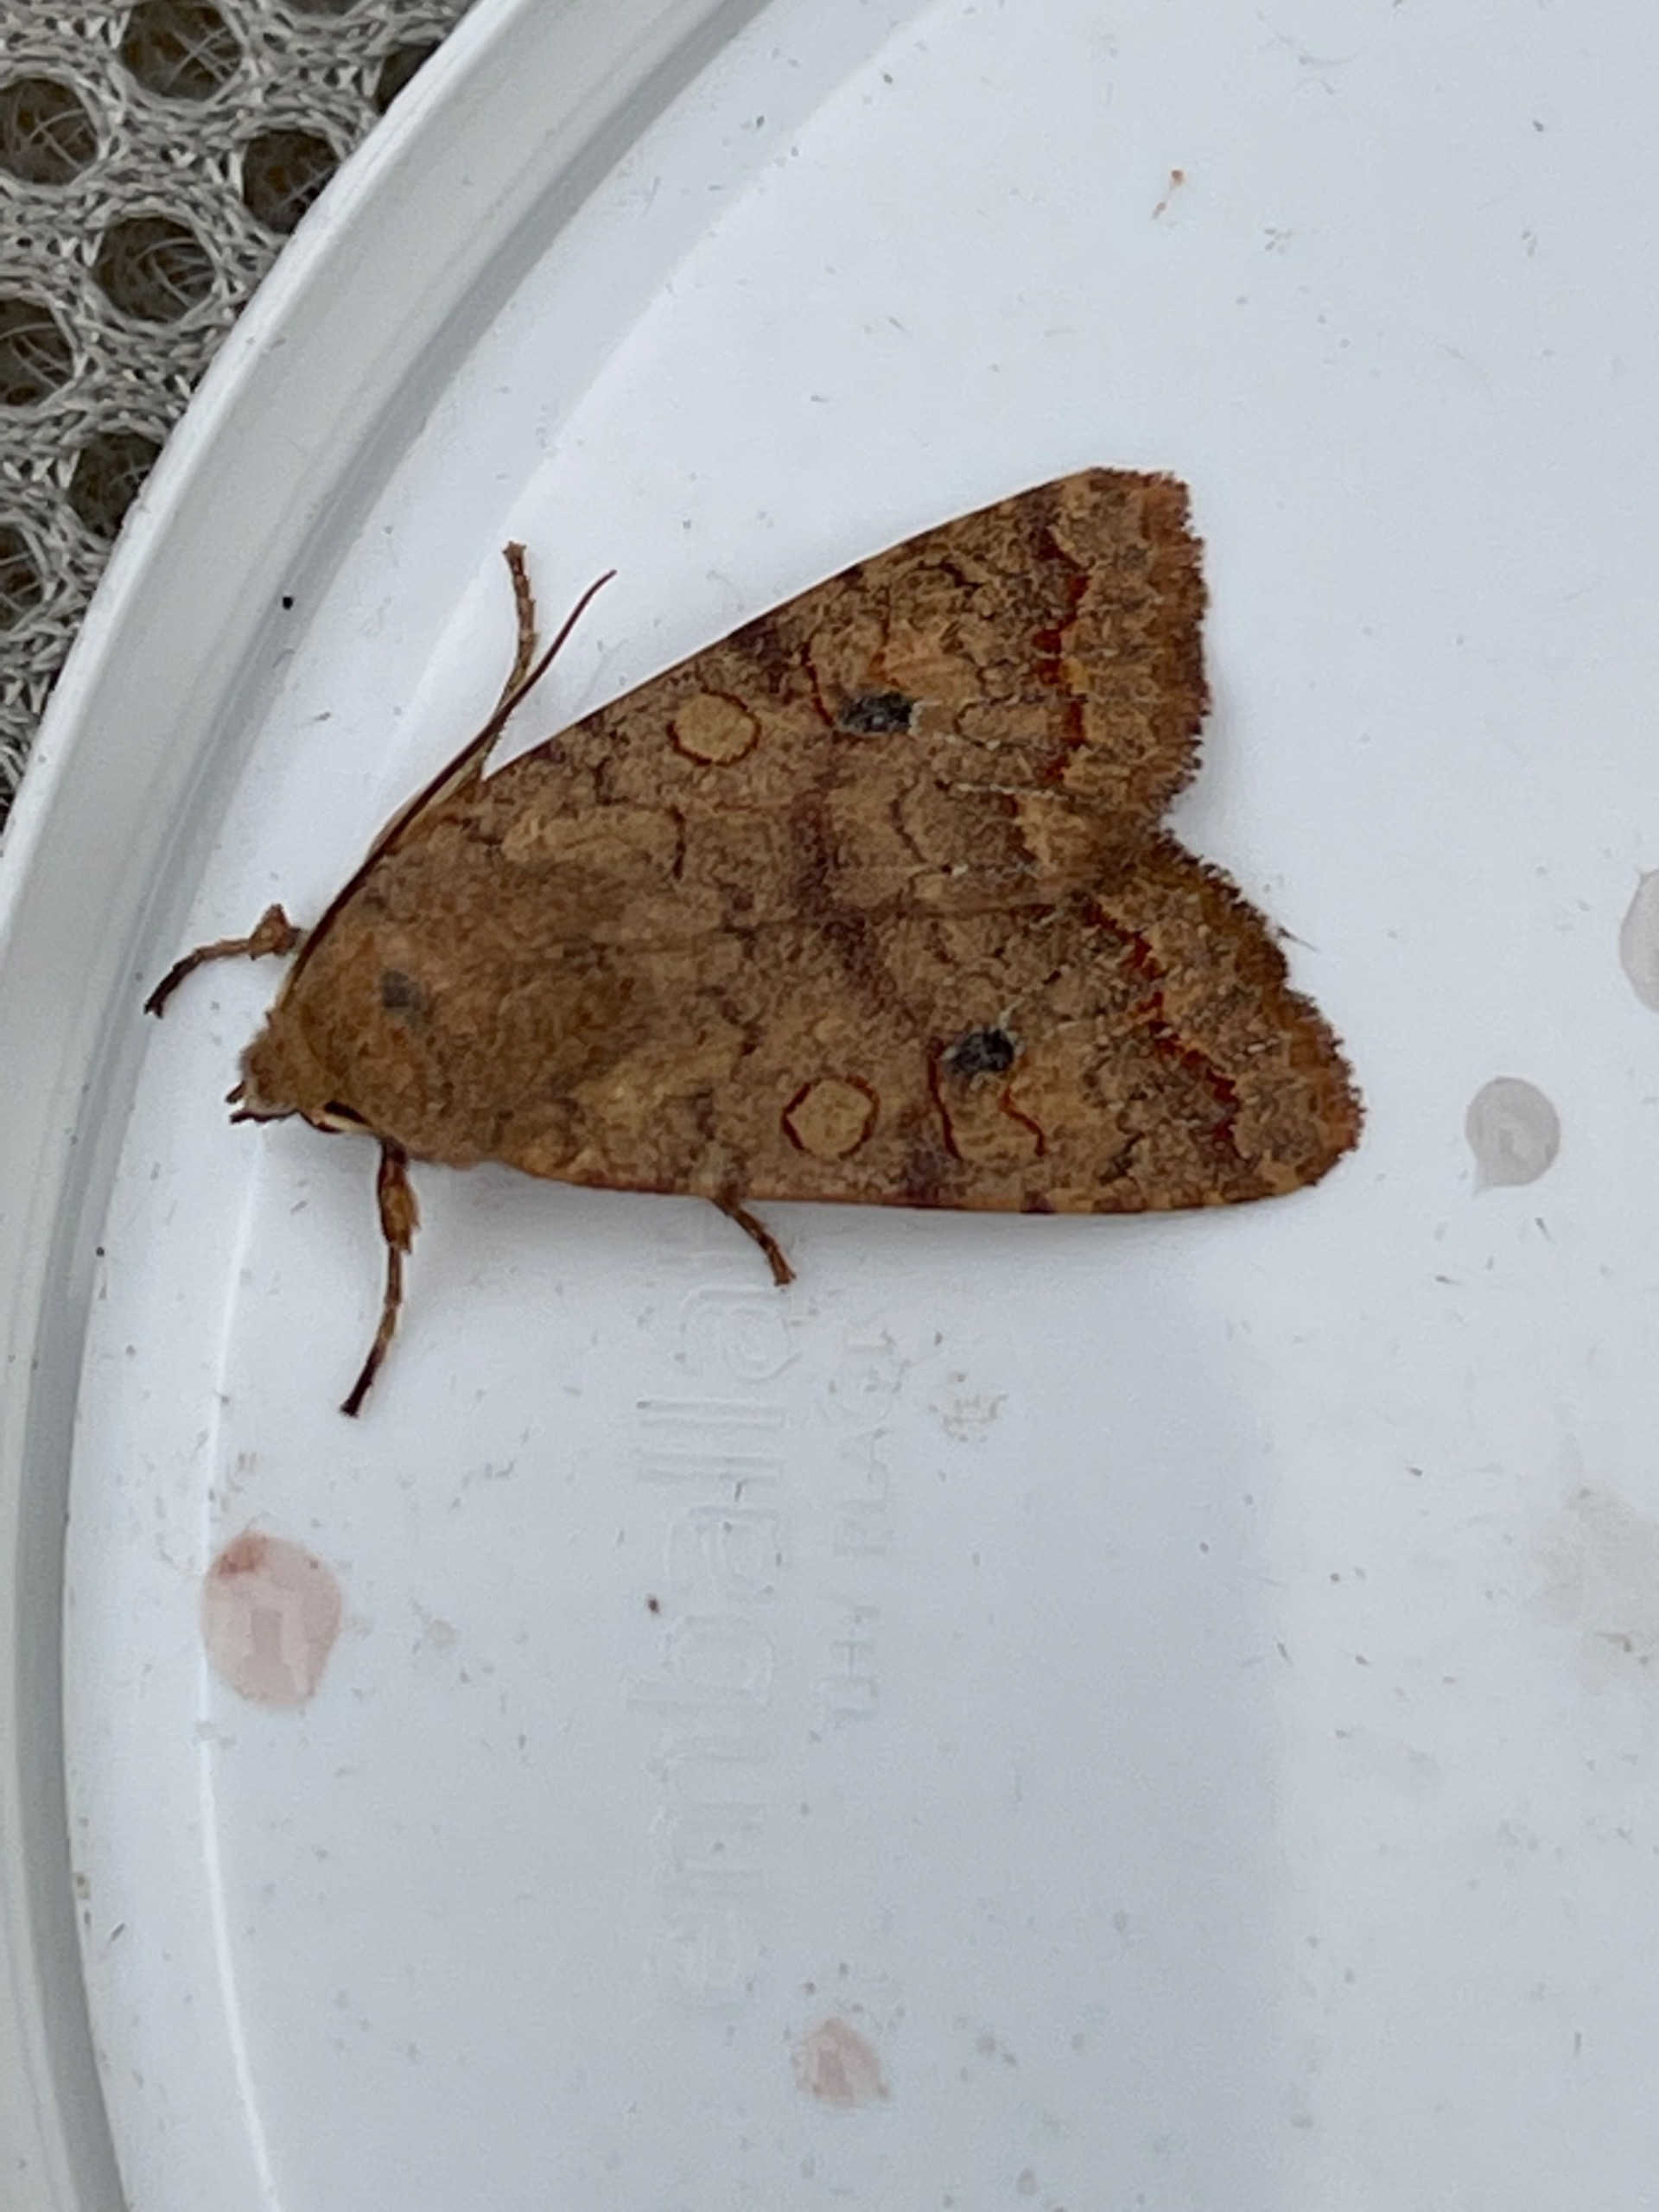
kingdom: Animalia
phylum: Arthropoda
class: Insecta
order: Lepidoptera
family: Noctuidae
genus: Sunira
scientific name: Sunira circellaris
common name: Cirkel-jordfarveugle
